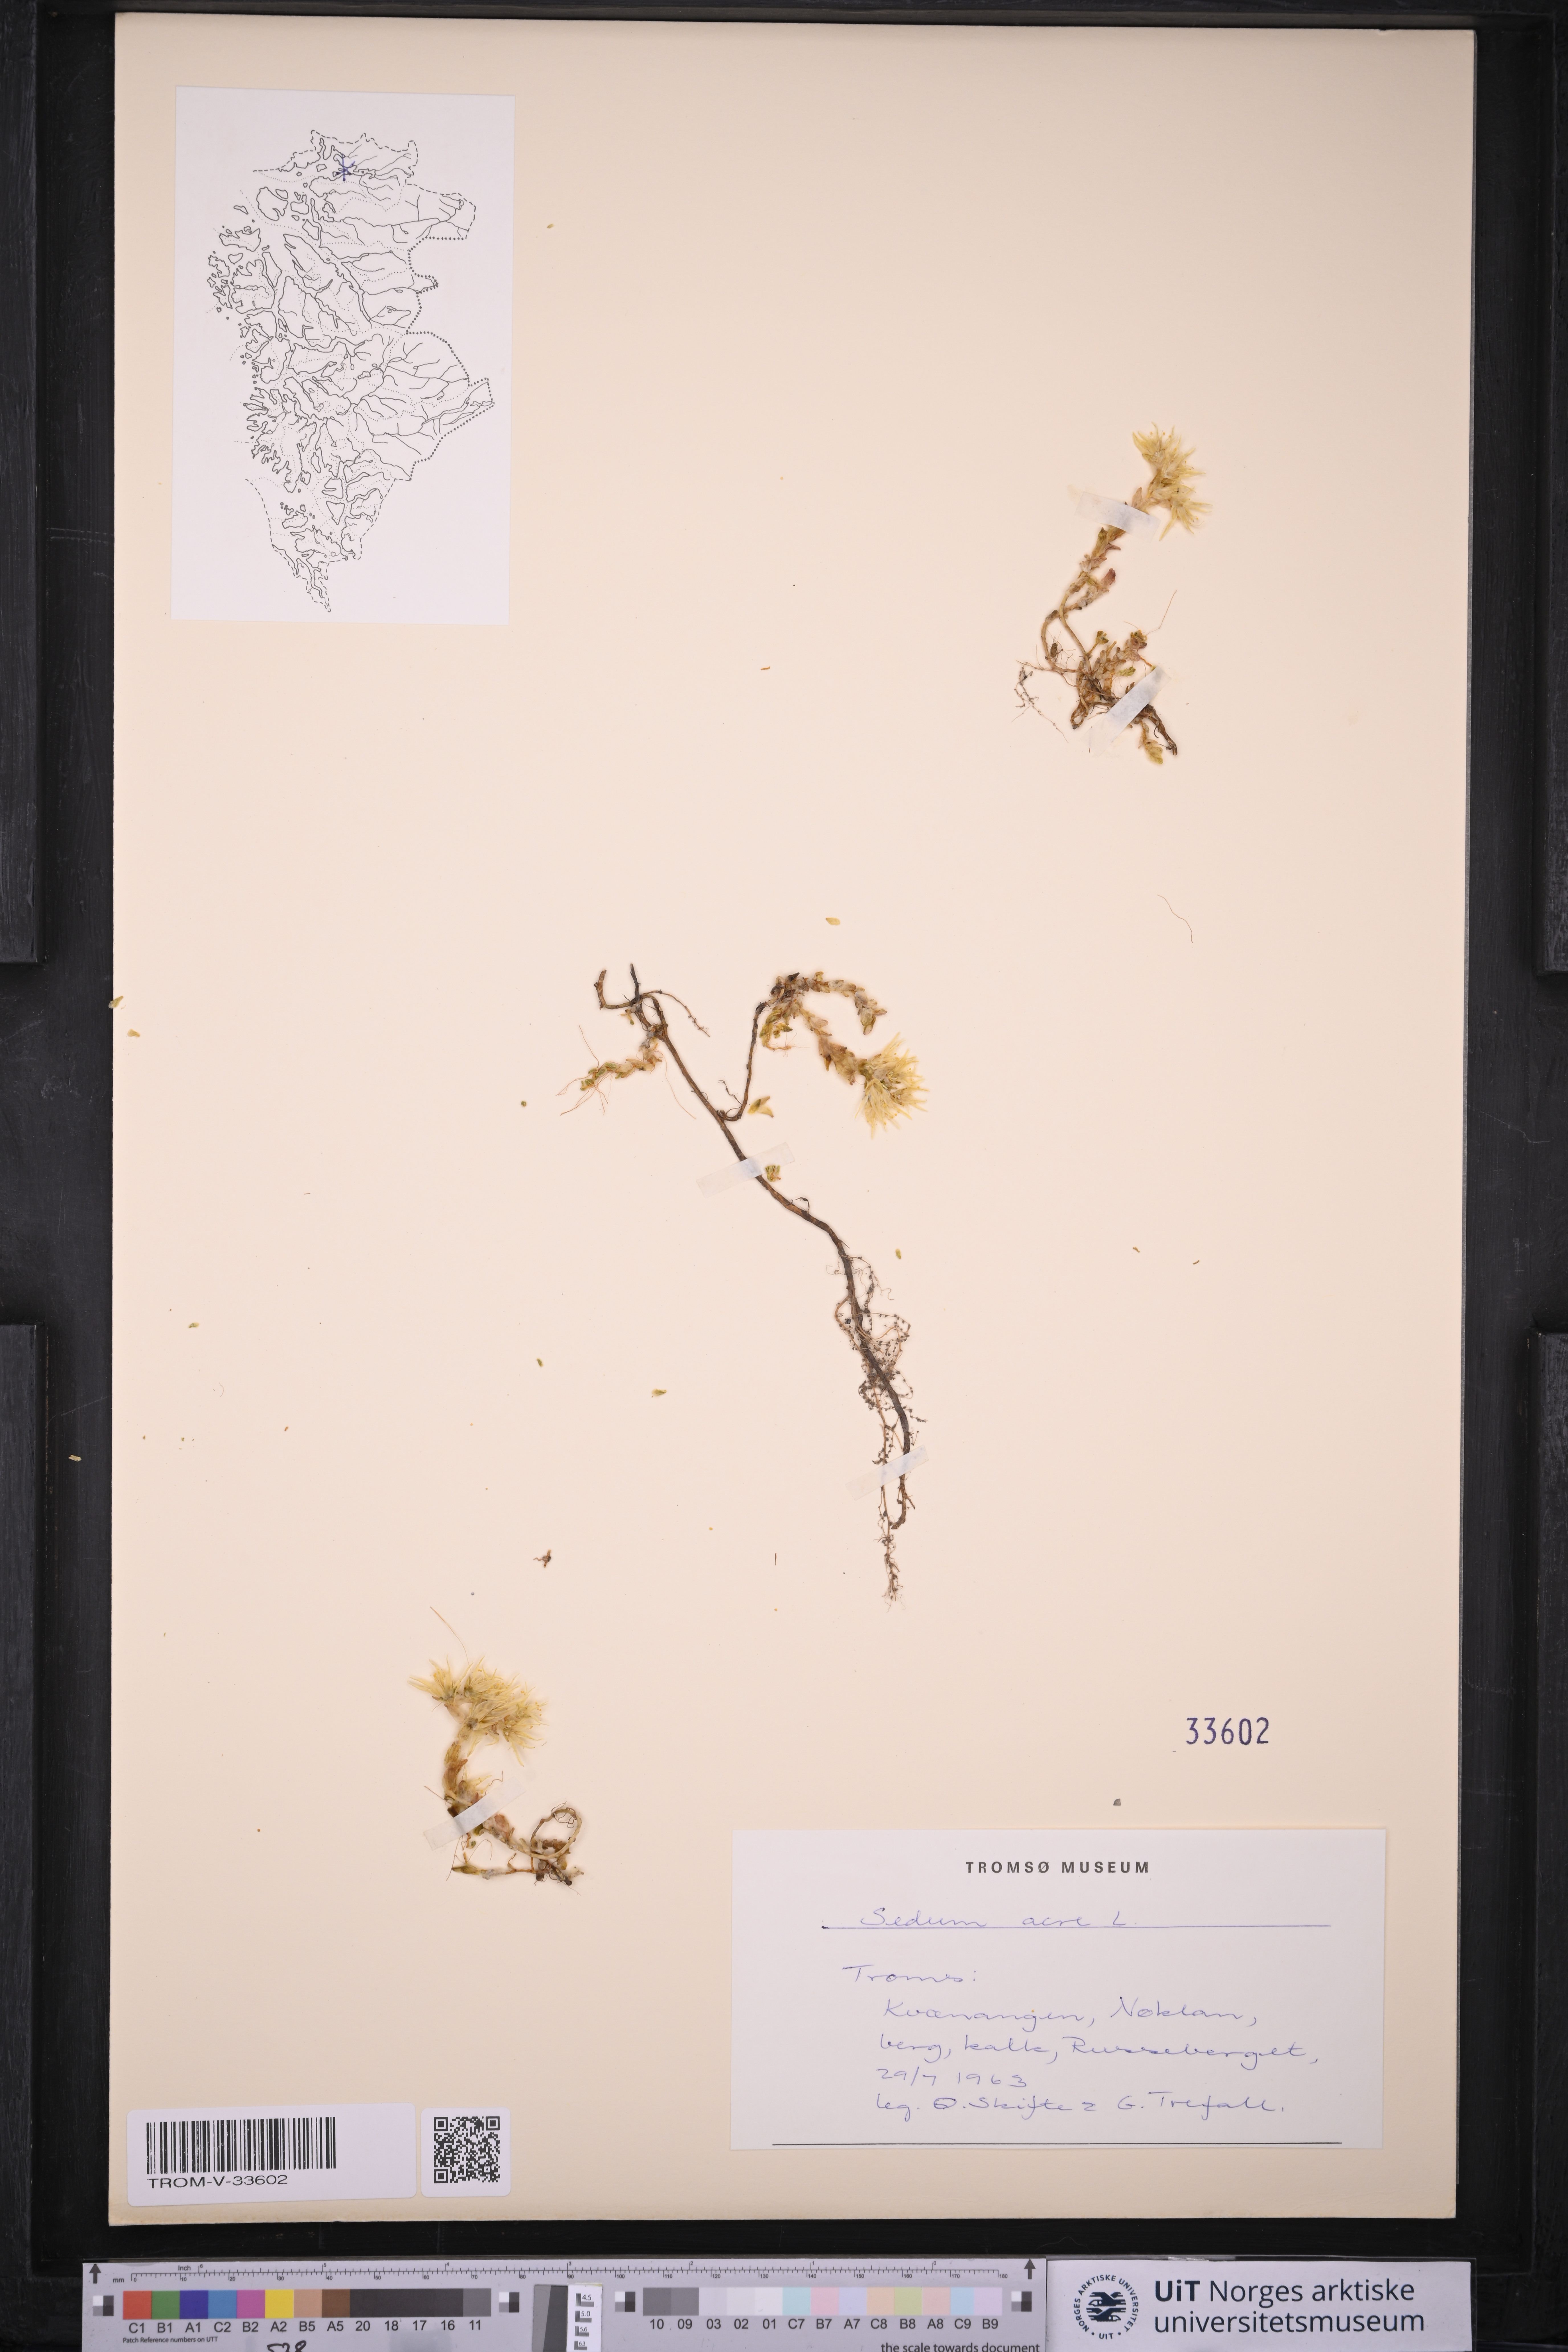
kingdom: Plantae
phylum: Tracheophyta
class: Magnoliopsida
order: Saxifragales
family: Crassulaceae
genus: Sedum
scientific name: Sedum acre
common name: Biting stonecrop
